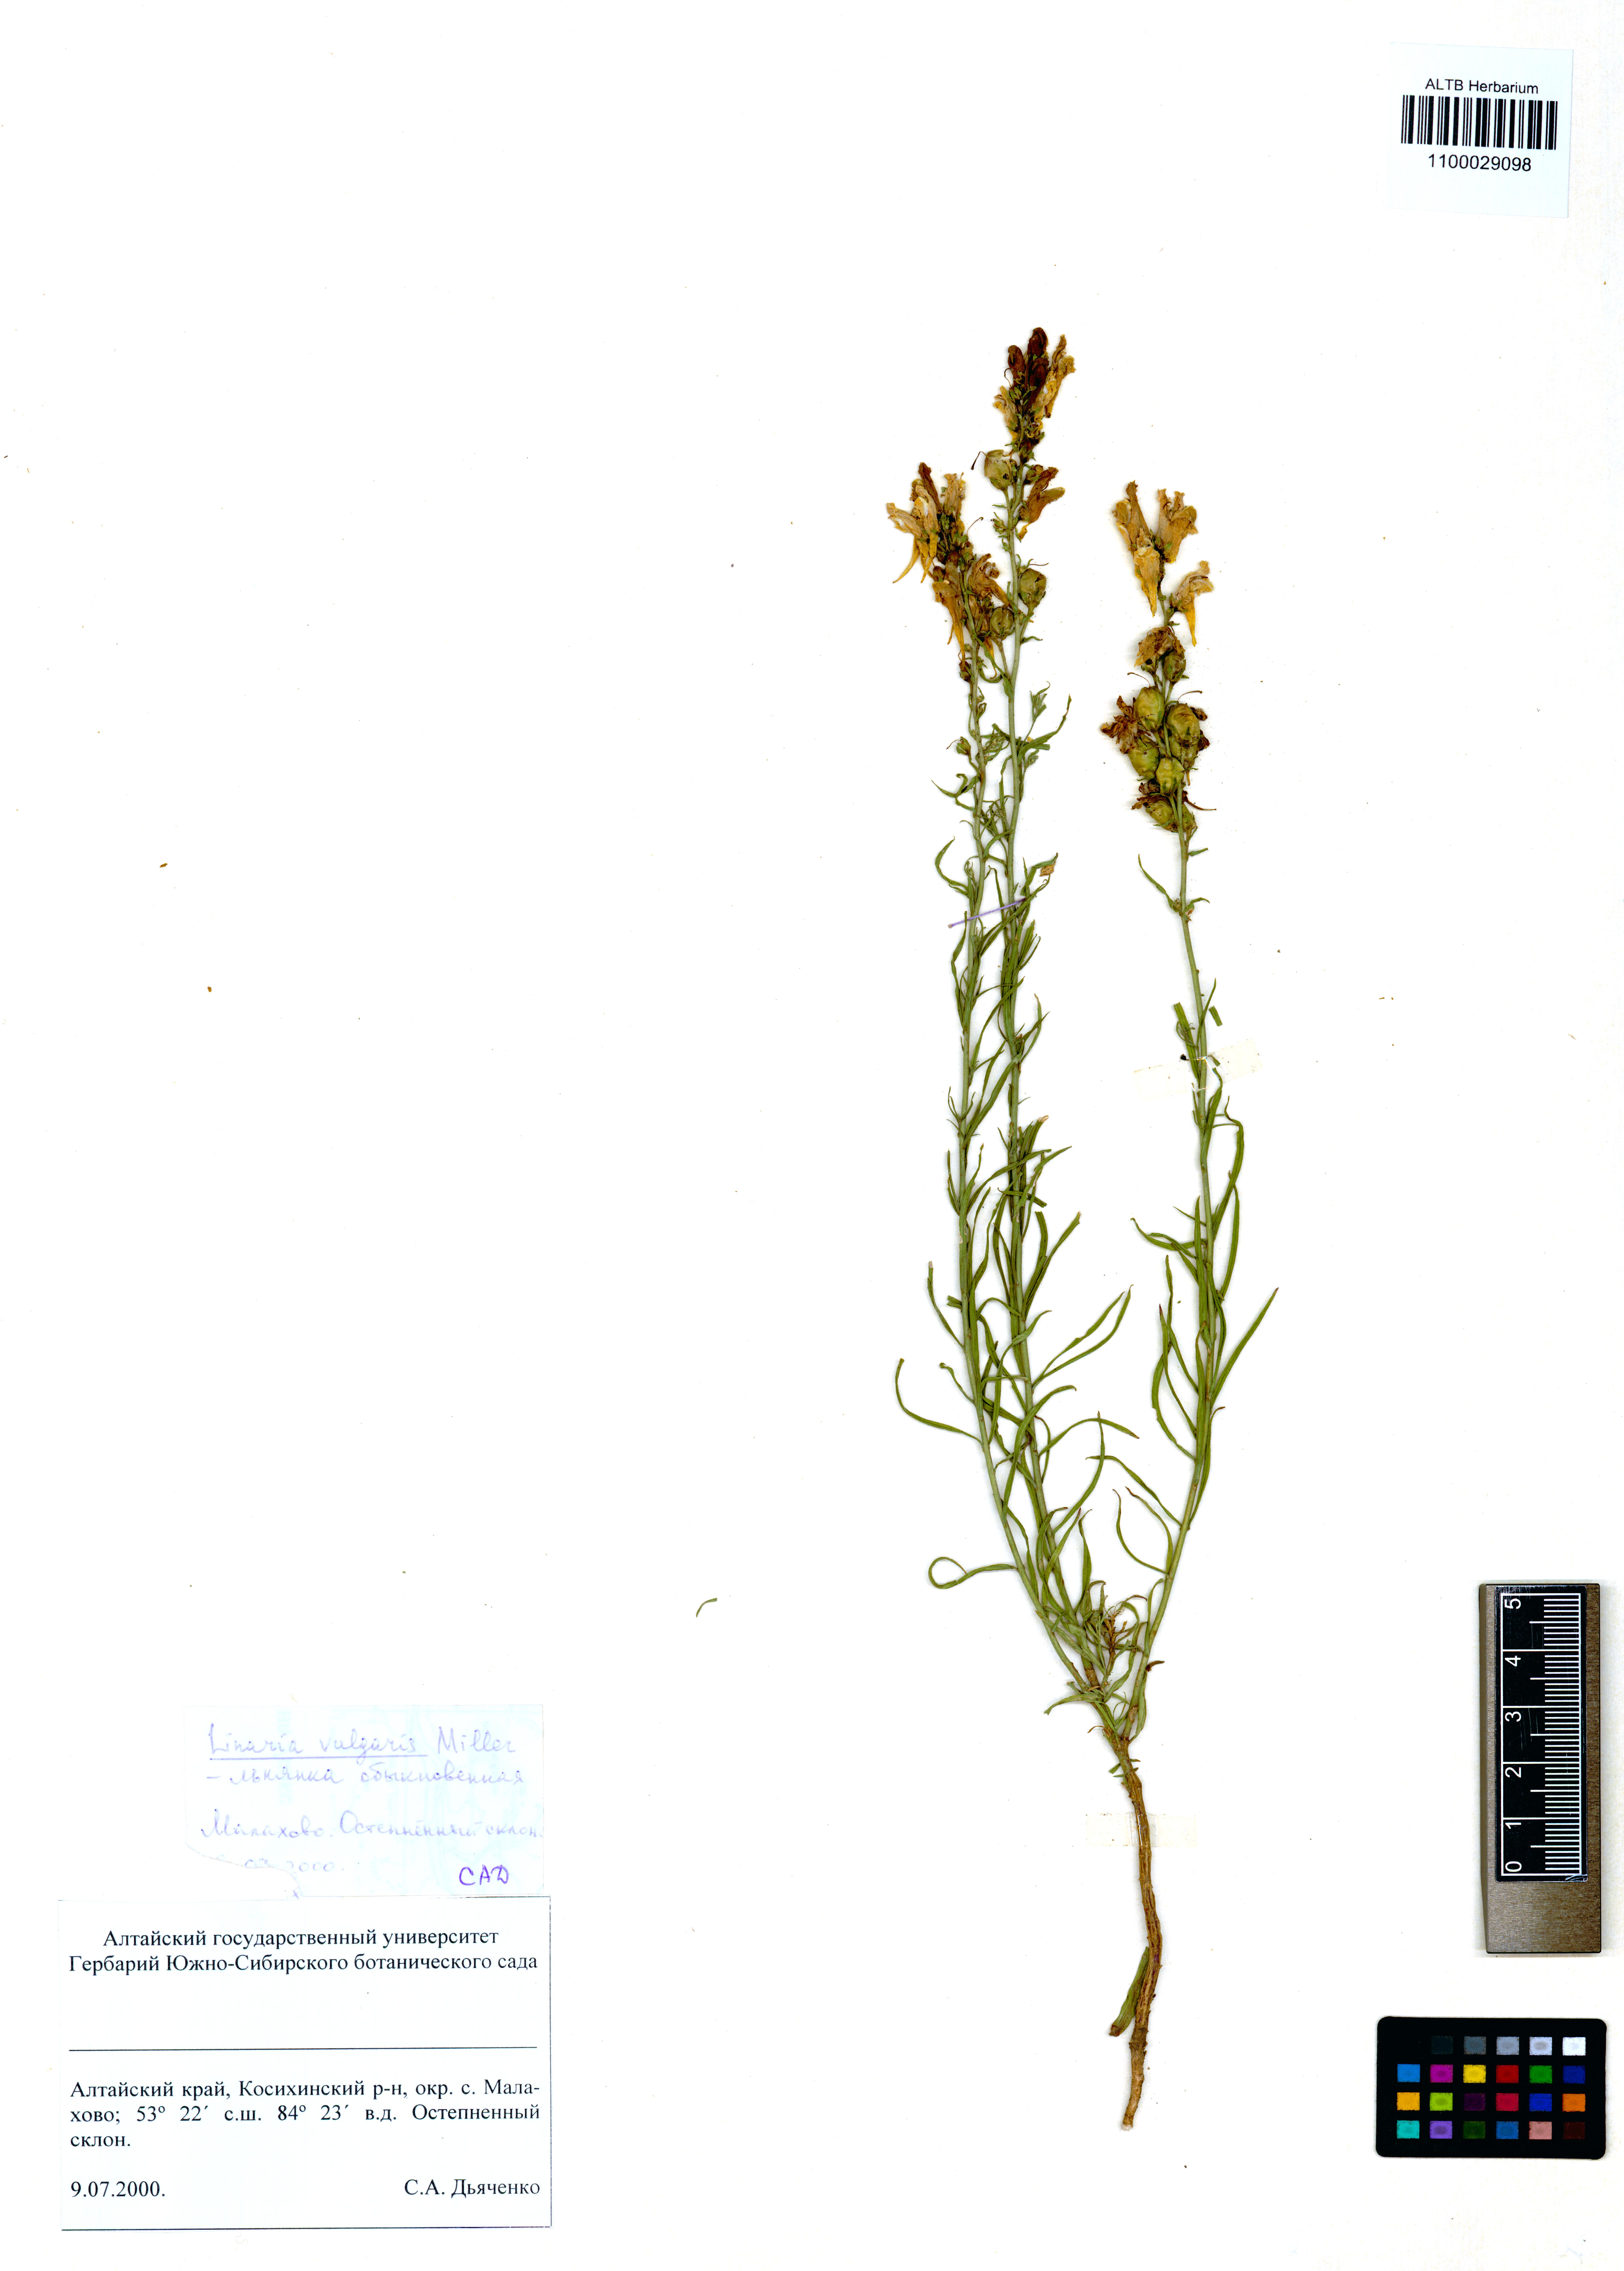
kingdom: Plantae
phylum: Tracheophyta
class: Magnoliopsida
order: Lamiales
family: Plantaginaceae
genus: Linaria
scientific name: Linaria vulgaris
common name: Butter and eggs
